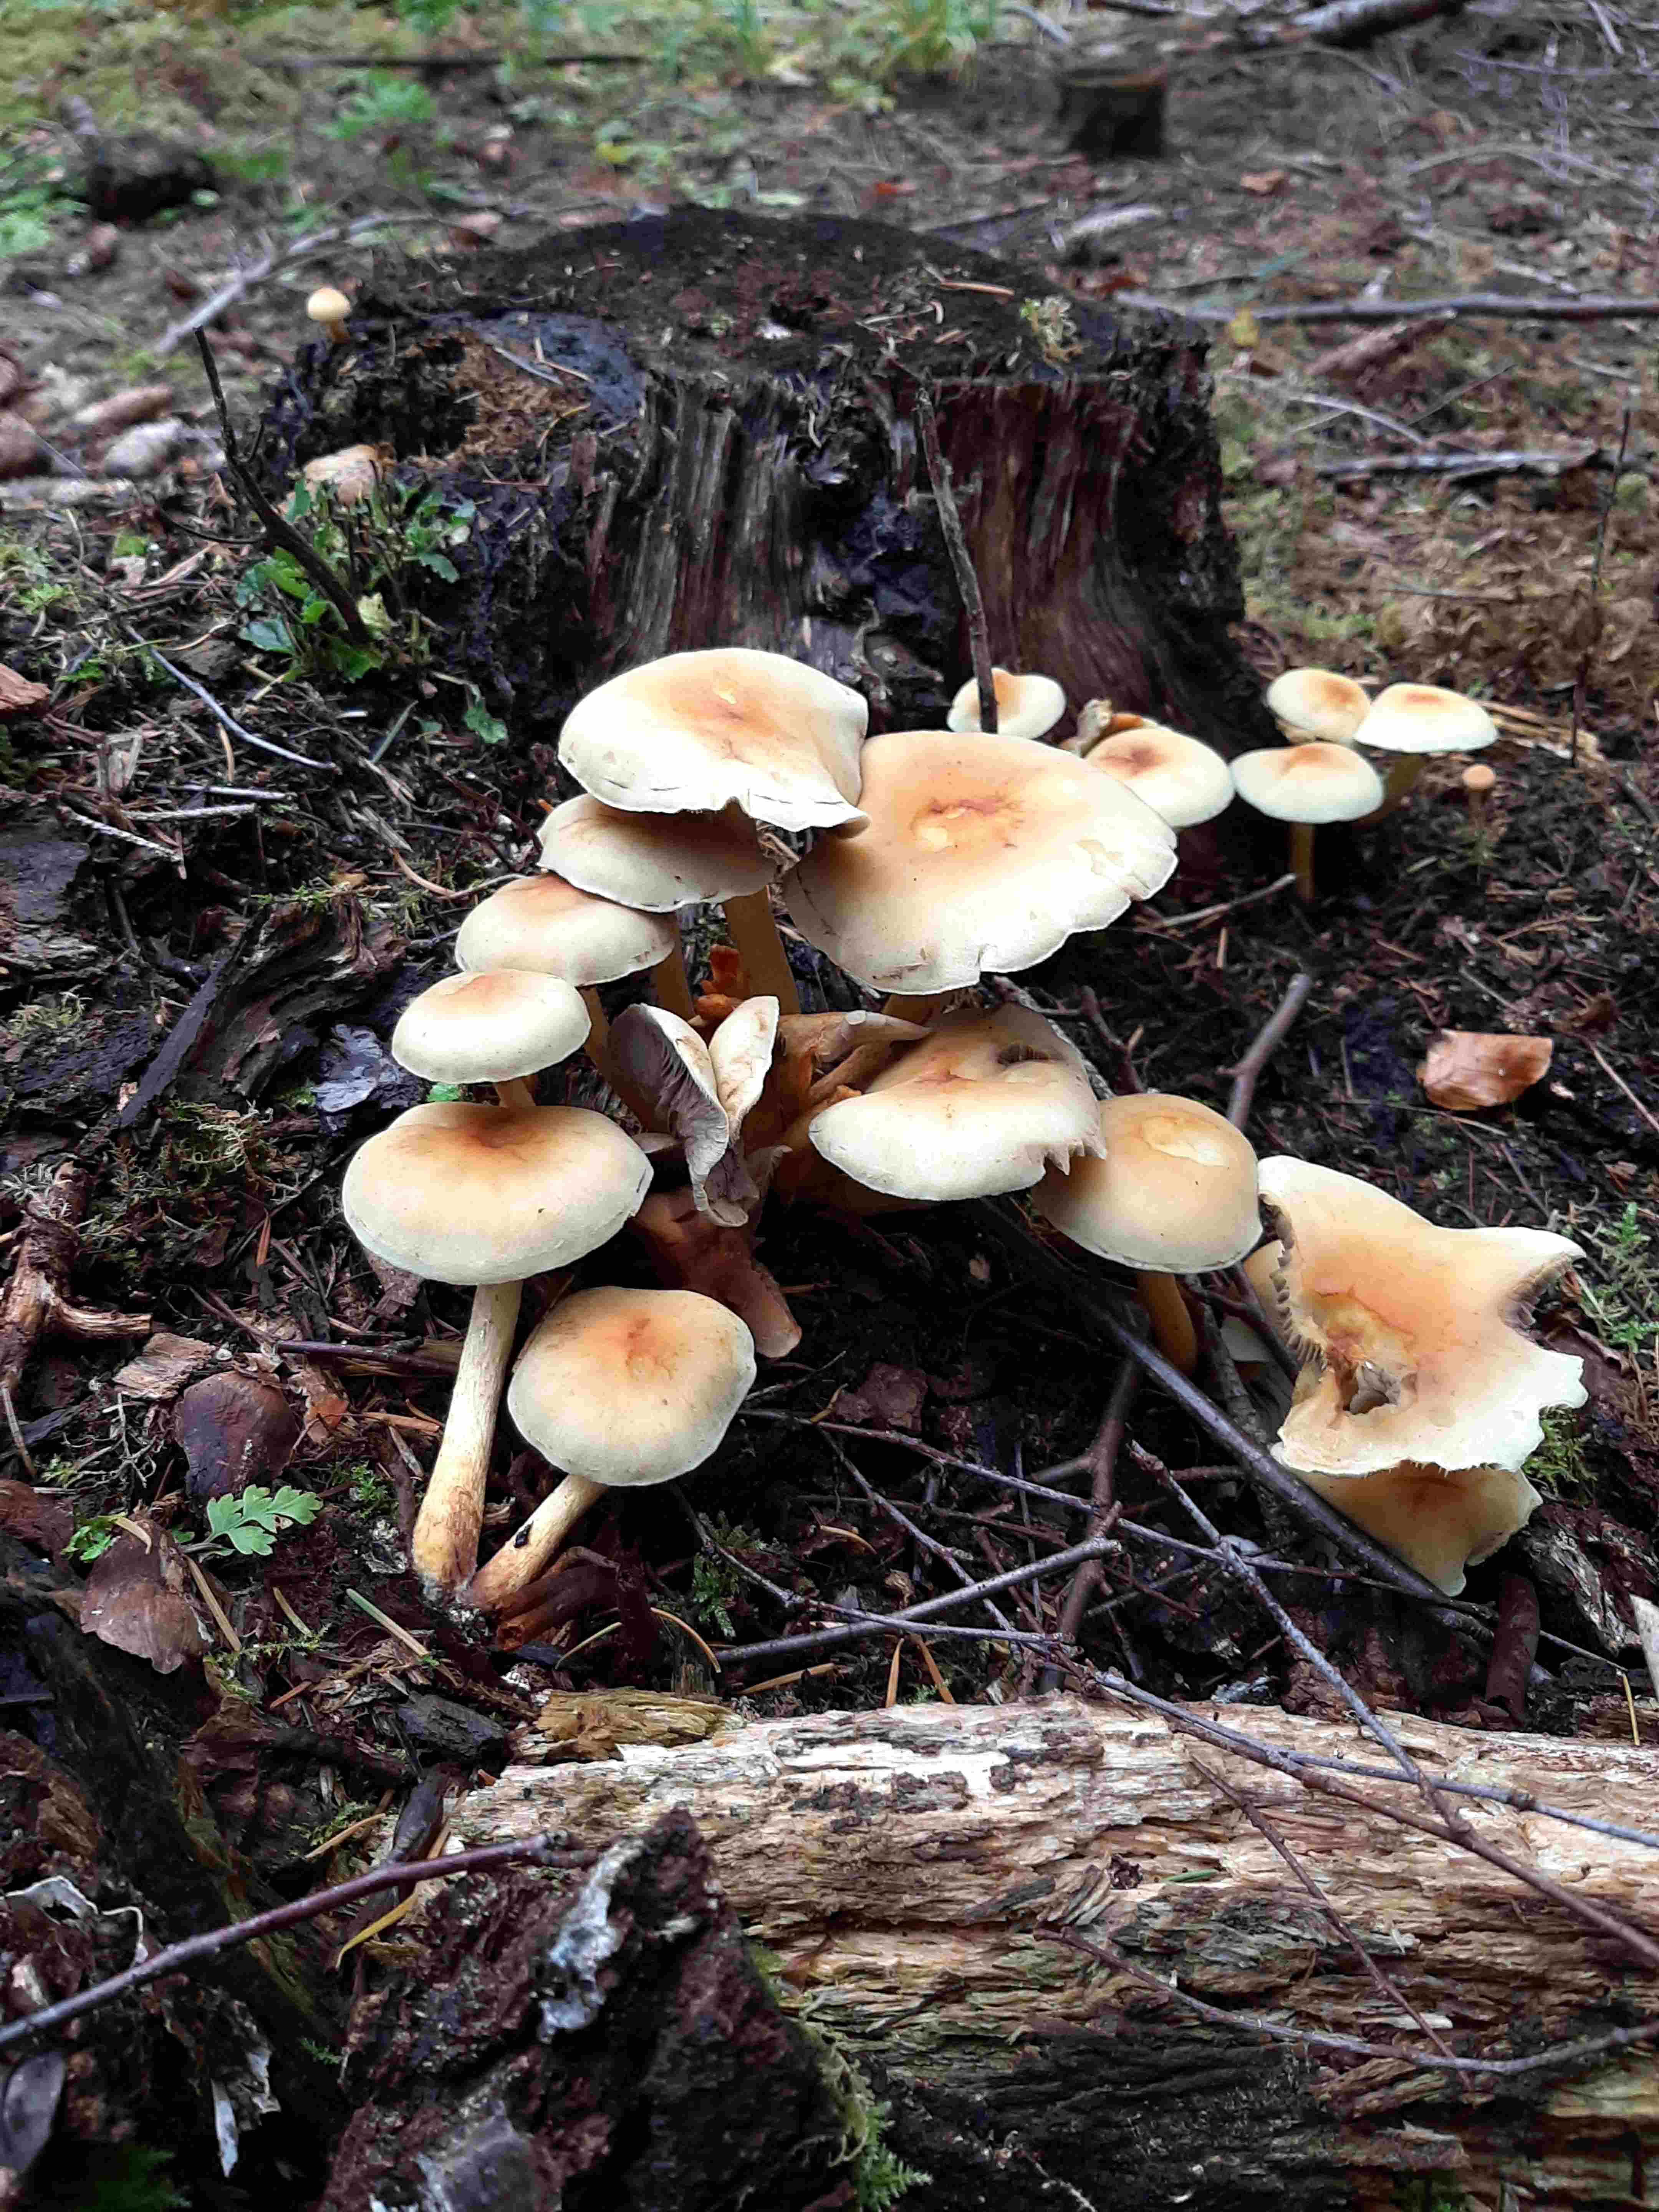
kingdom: Fungi
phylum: Basidiomycota
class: Agaricomycetes
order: Agaricales
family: Strophariaceae
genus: Hypholoma
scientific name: Hypholoma
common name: svovlhat
